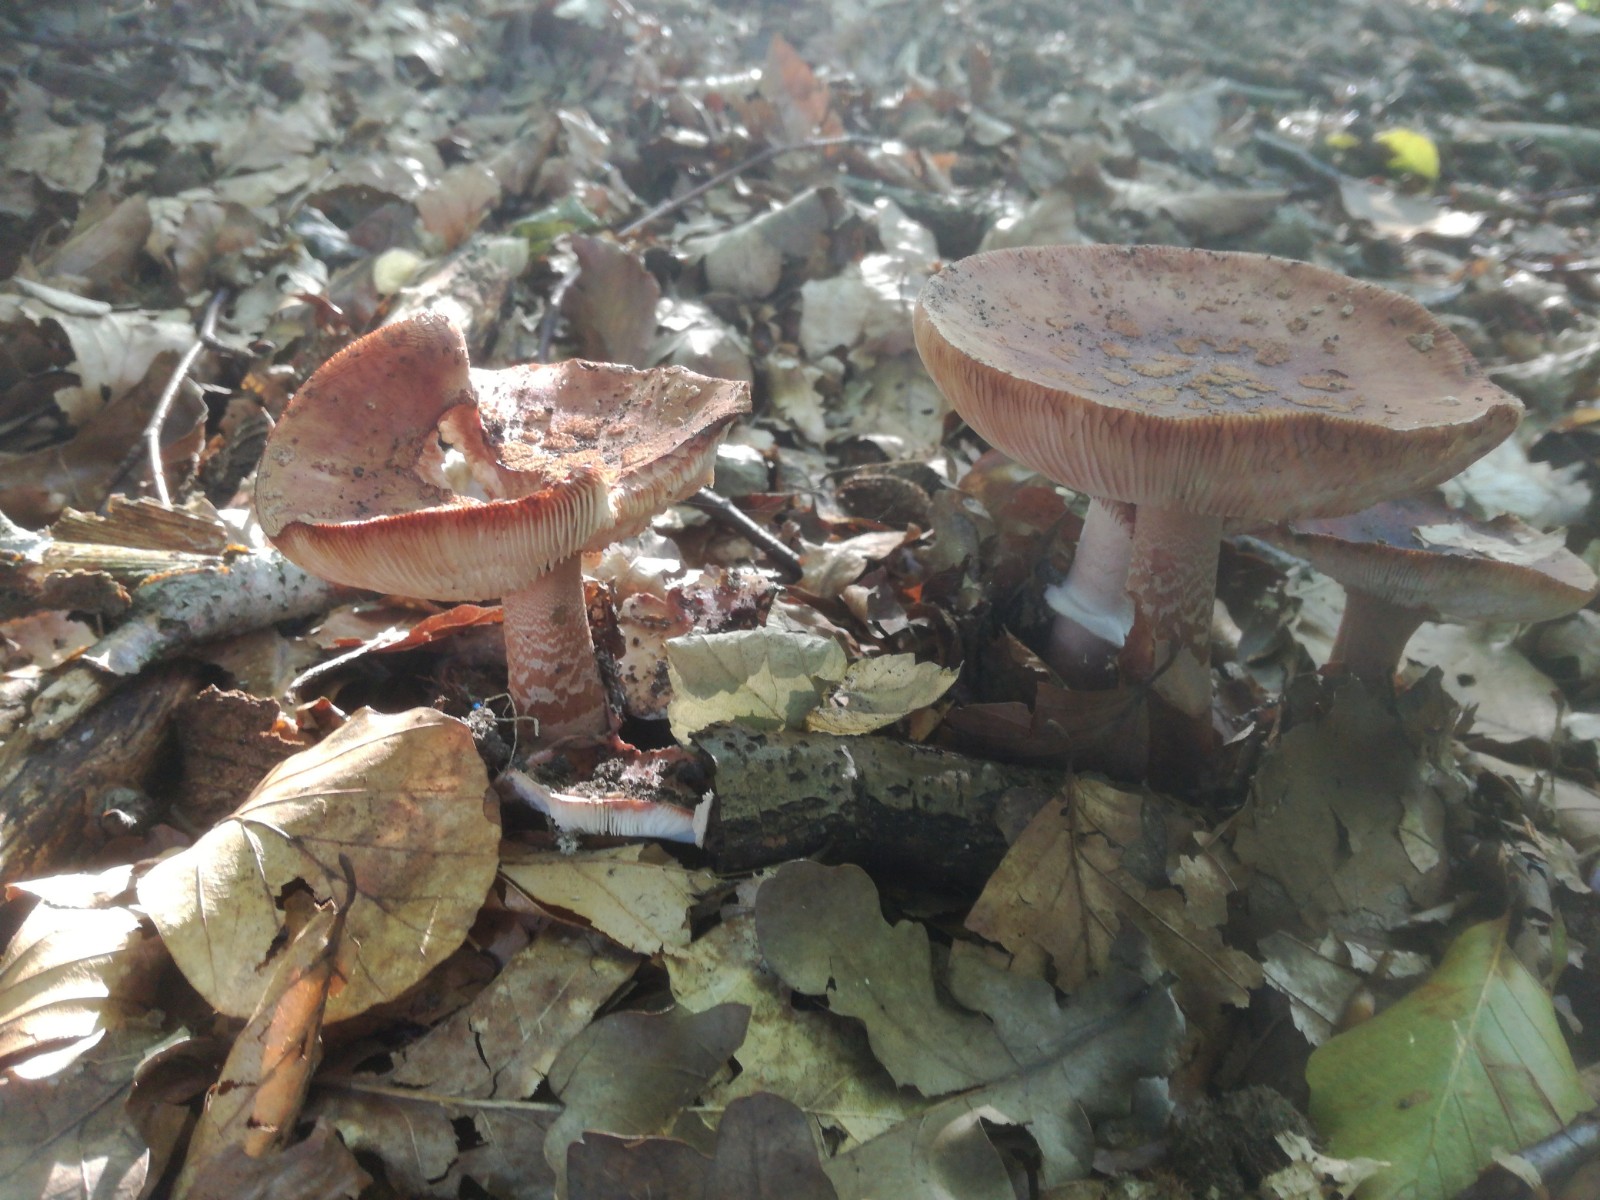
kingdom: Fungi
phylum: Basidiomycota
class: Agaricomycetes
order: Agaricales
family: Amanitaceae
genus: Amanita
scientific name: Amanita rubescens
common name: rødmende fluesvamp
